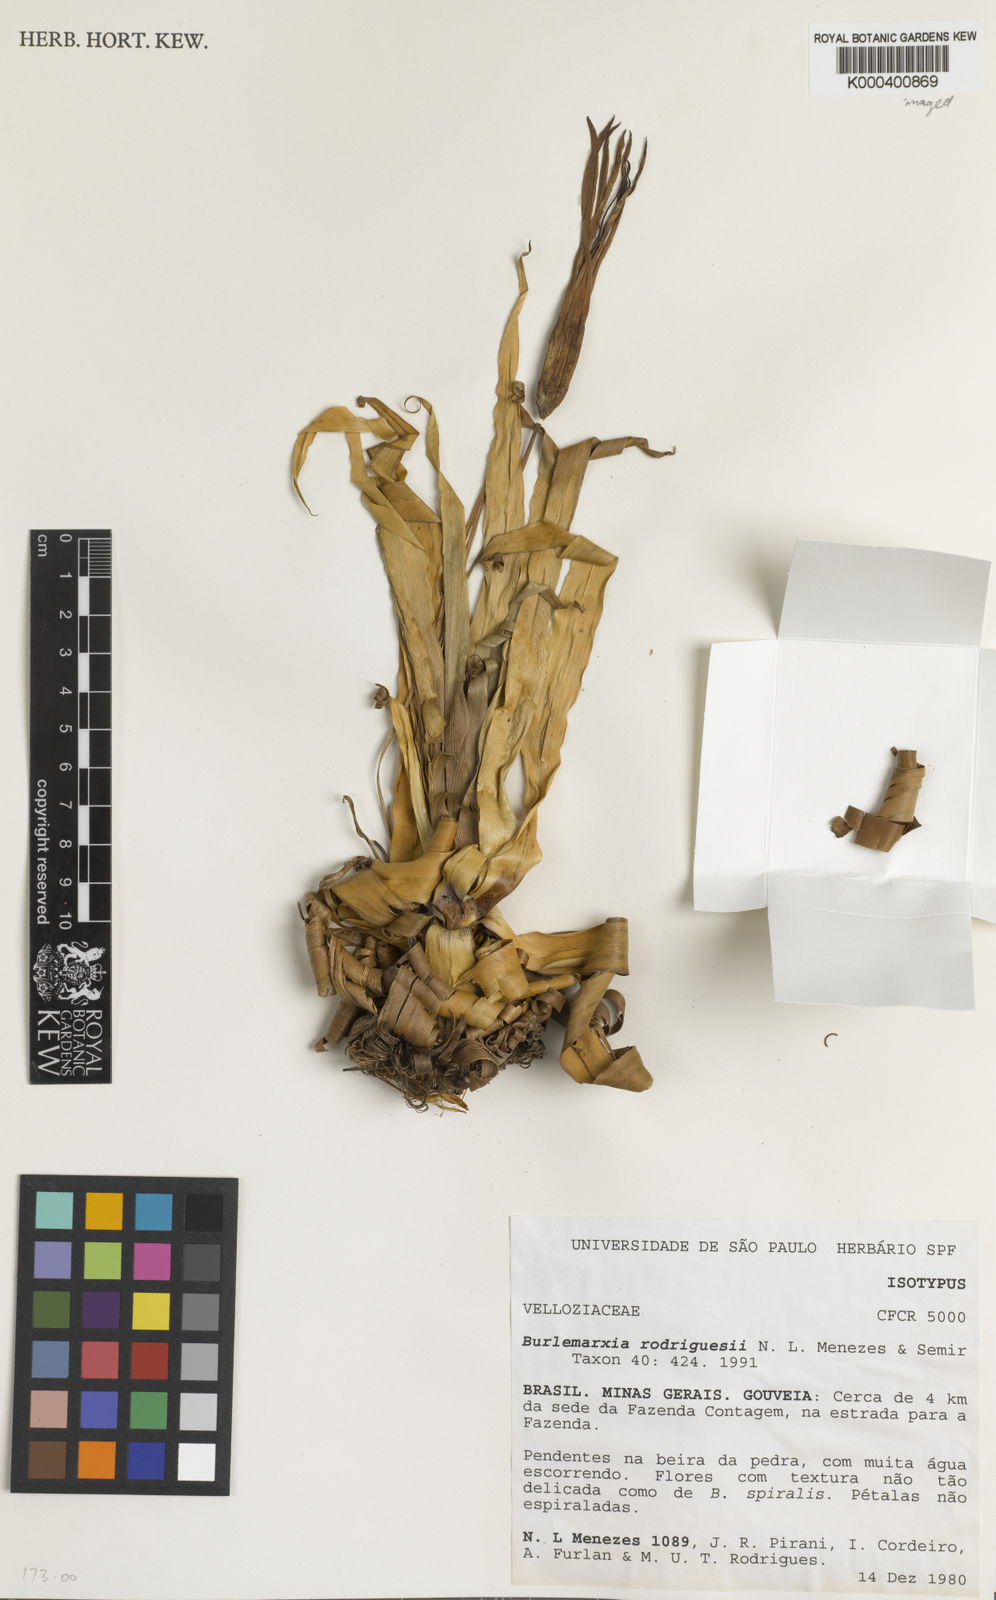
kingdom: Plantae
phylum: Tracheophyta
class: Liliopsida
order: Pandanales
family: Velloziaceae
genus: Barbacenia
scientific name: Barbacenia rodriguesii
